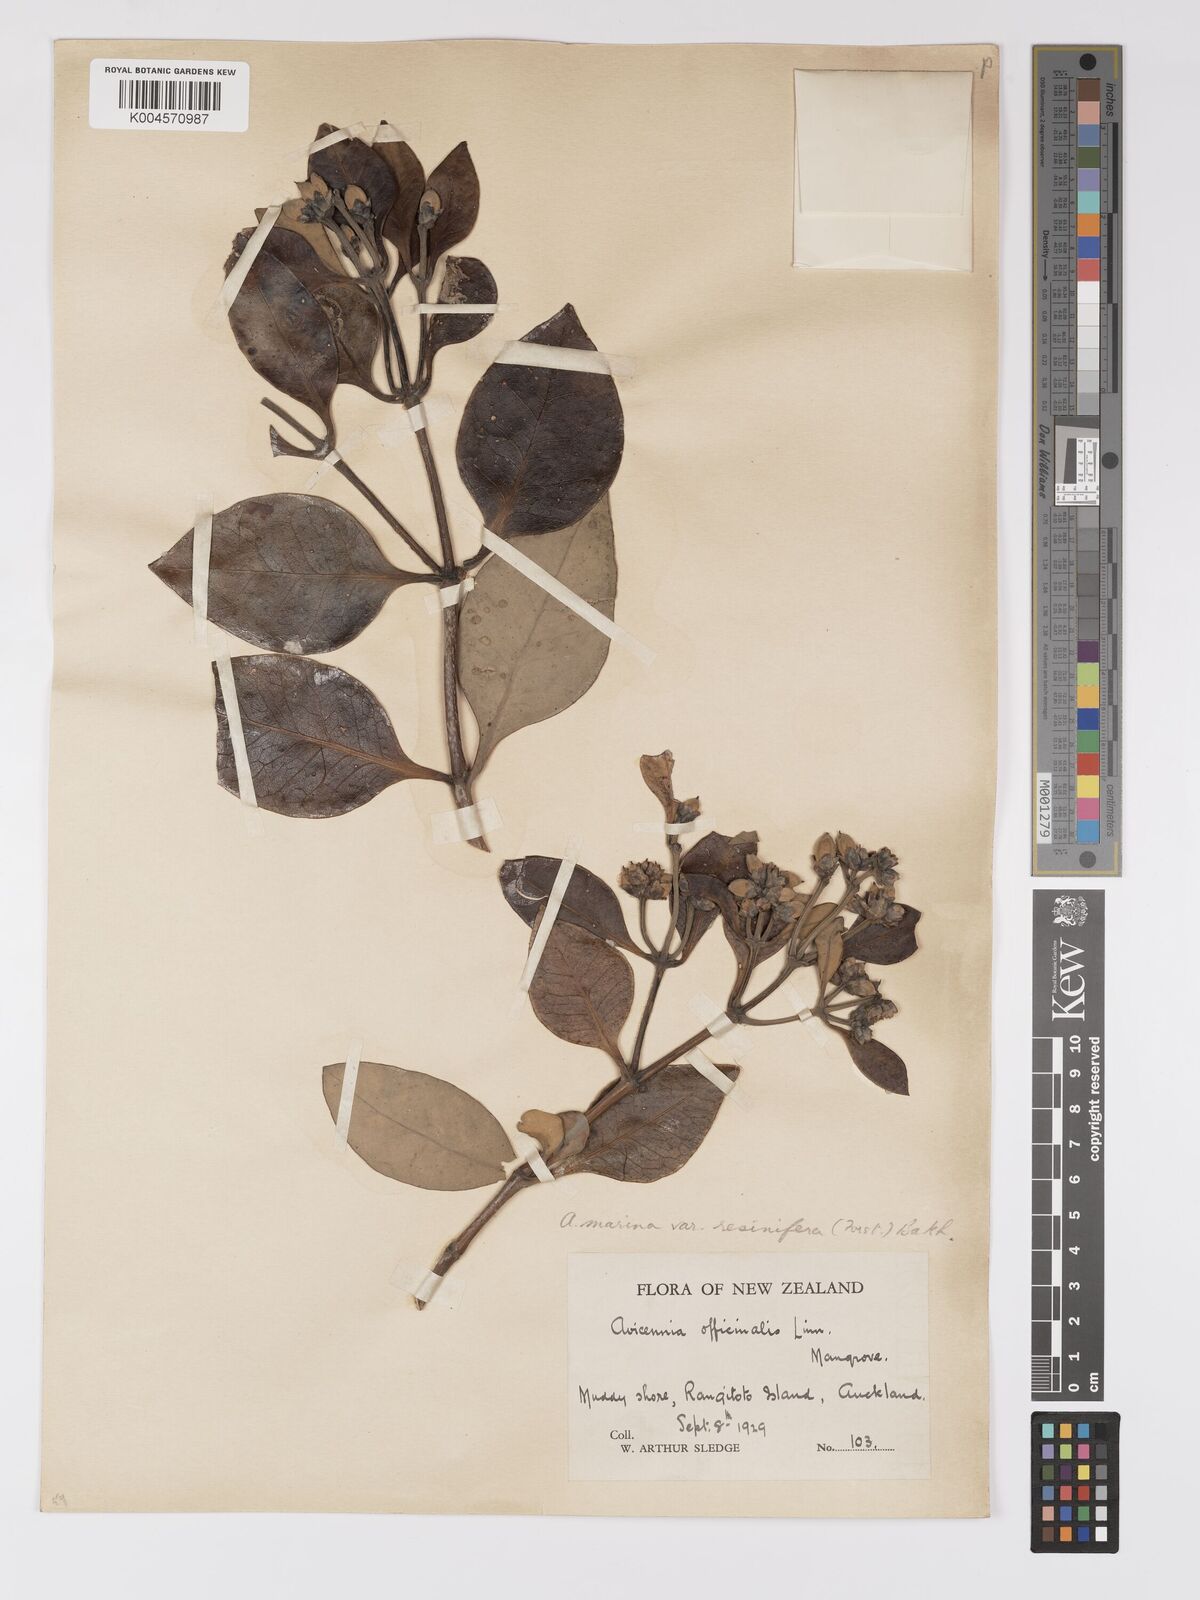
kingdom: Plantae
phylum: Tracheophyta
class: Magnoliopsida
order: Lamiales
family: Acanthaceae
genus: Avicennia
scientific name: Avicennia marina
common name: Gray mangrove
